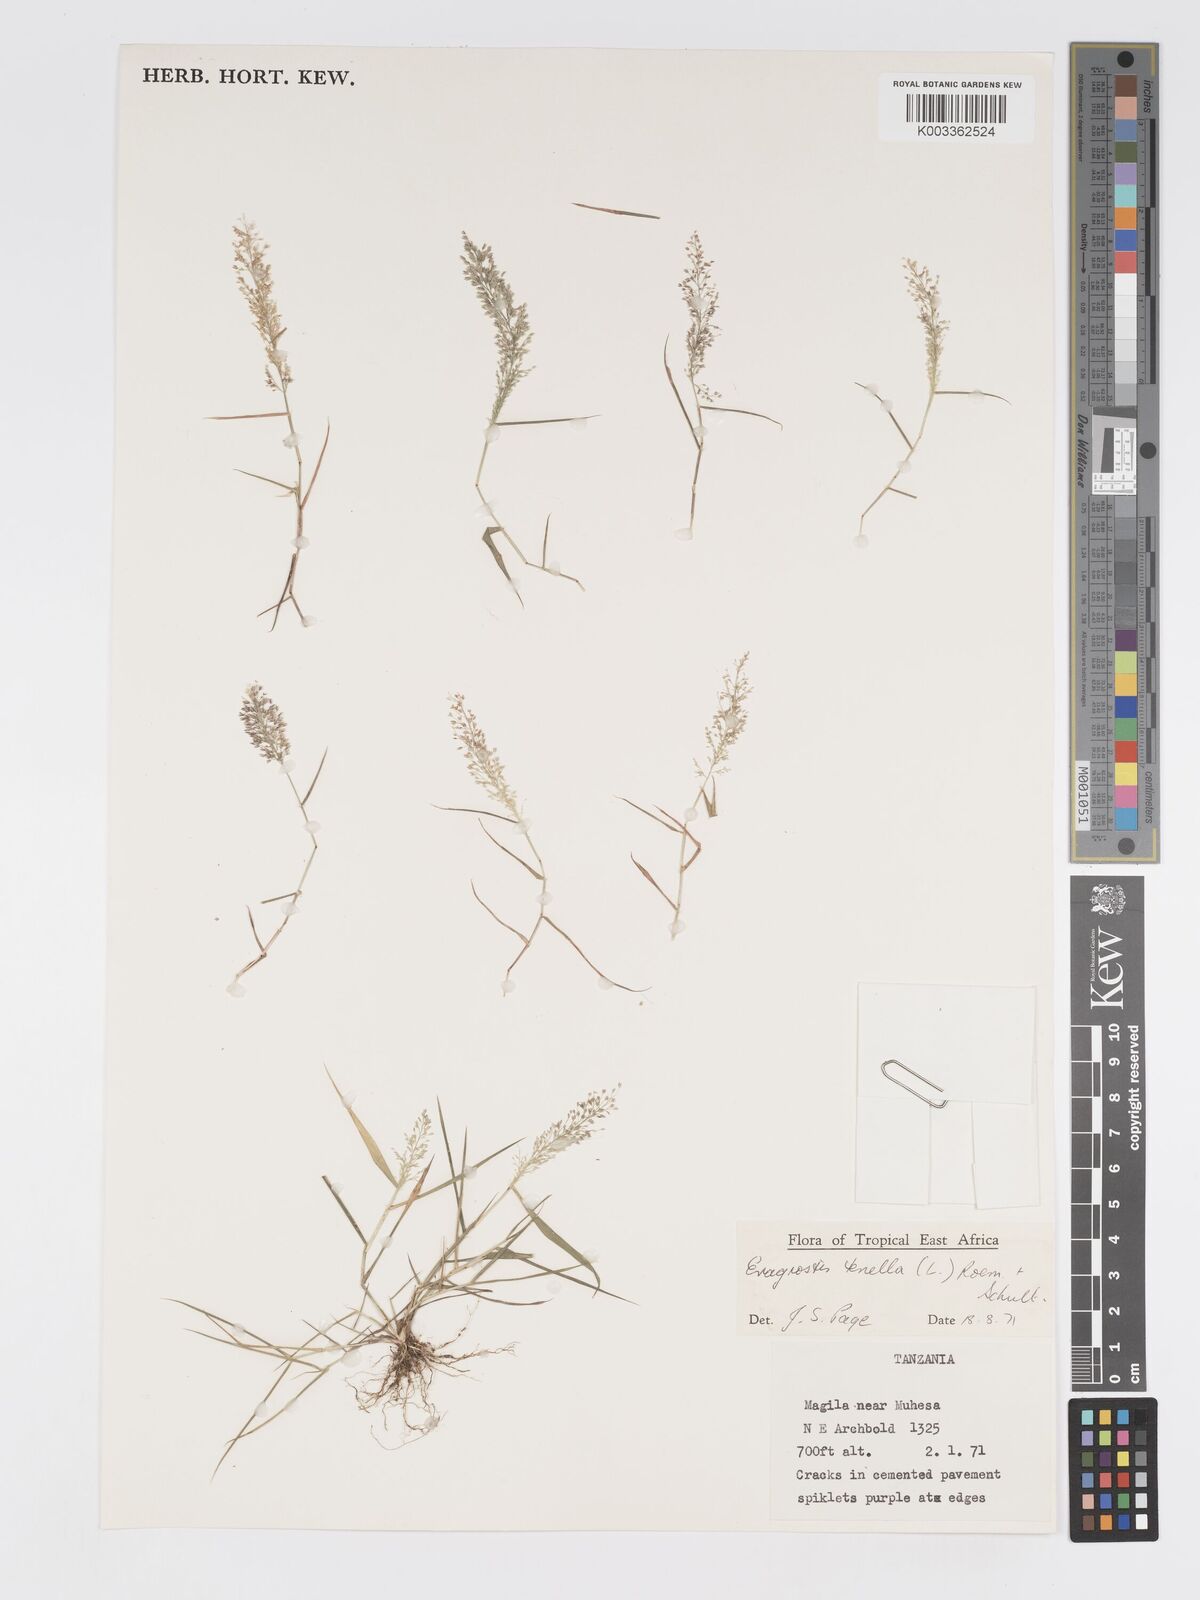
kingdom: Plantae
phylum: Tracheophyta
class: Liliopsida
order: Poales
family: Poaceae
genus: Eragrostis
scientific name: Eragrostis tenella
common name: Japanese lovegrass
